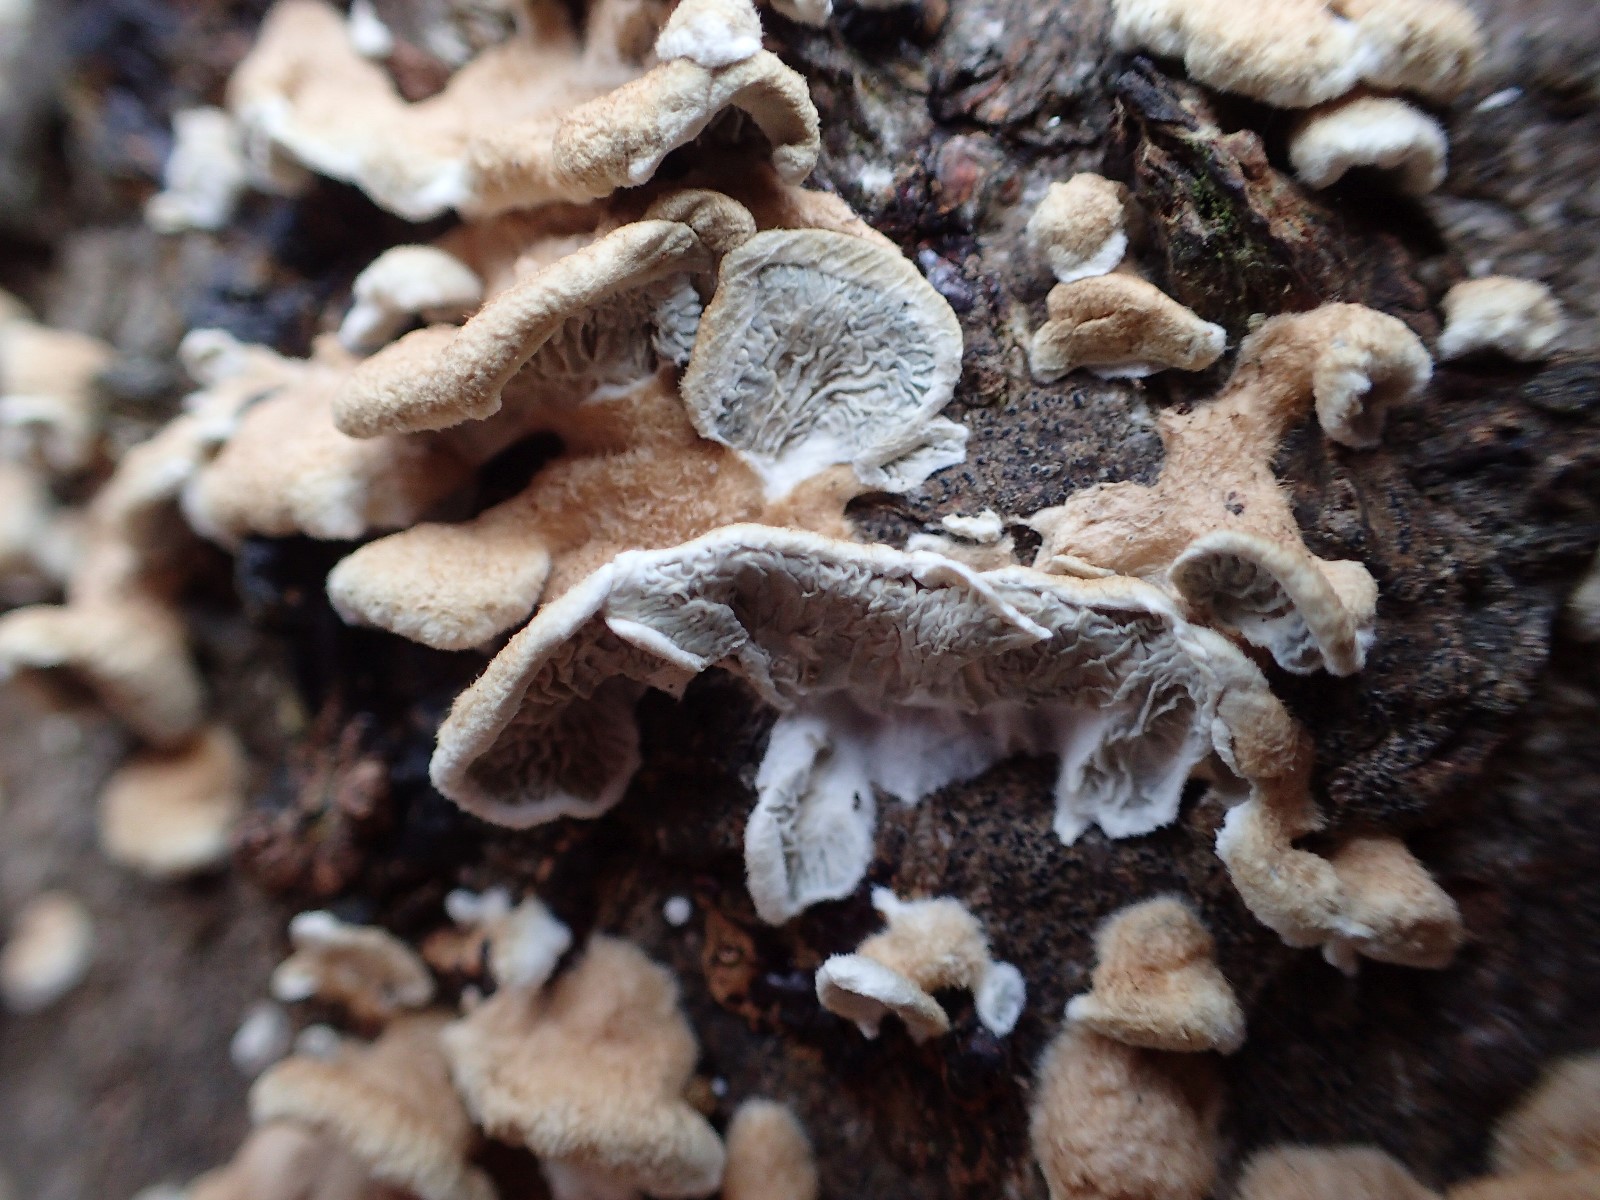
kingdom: Fungi
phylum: Basidiomycota
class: Agaricomycetes
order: Amylocorticiales
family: Amylocorticiaceae
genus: Plicaturopsis
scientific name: Plicaturopsis crispa
